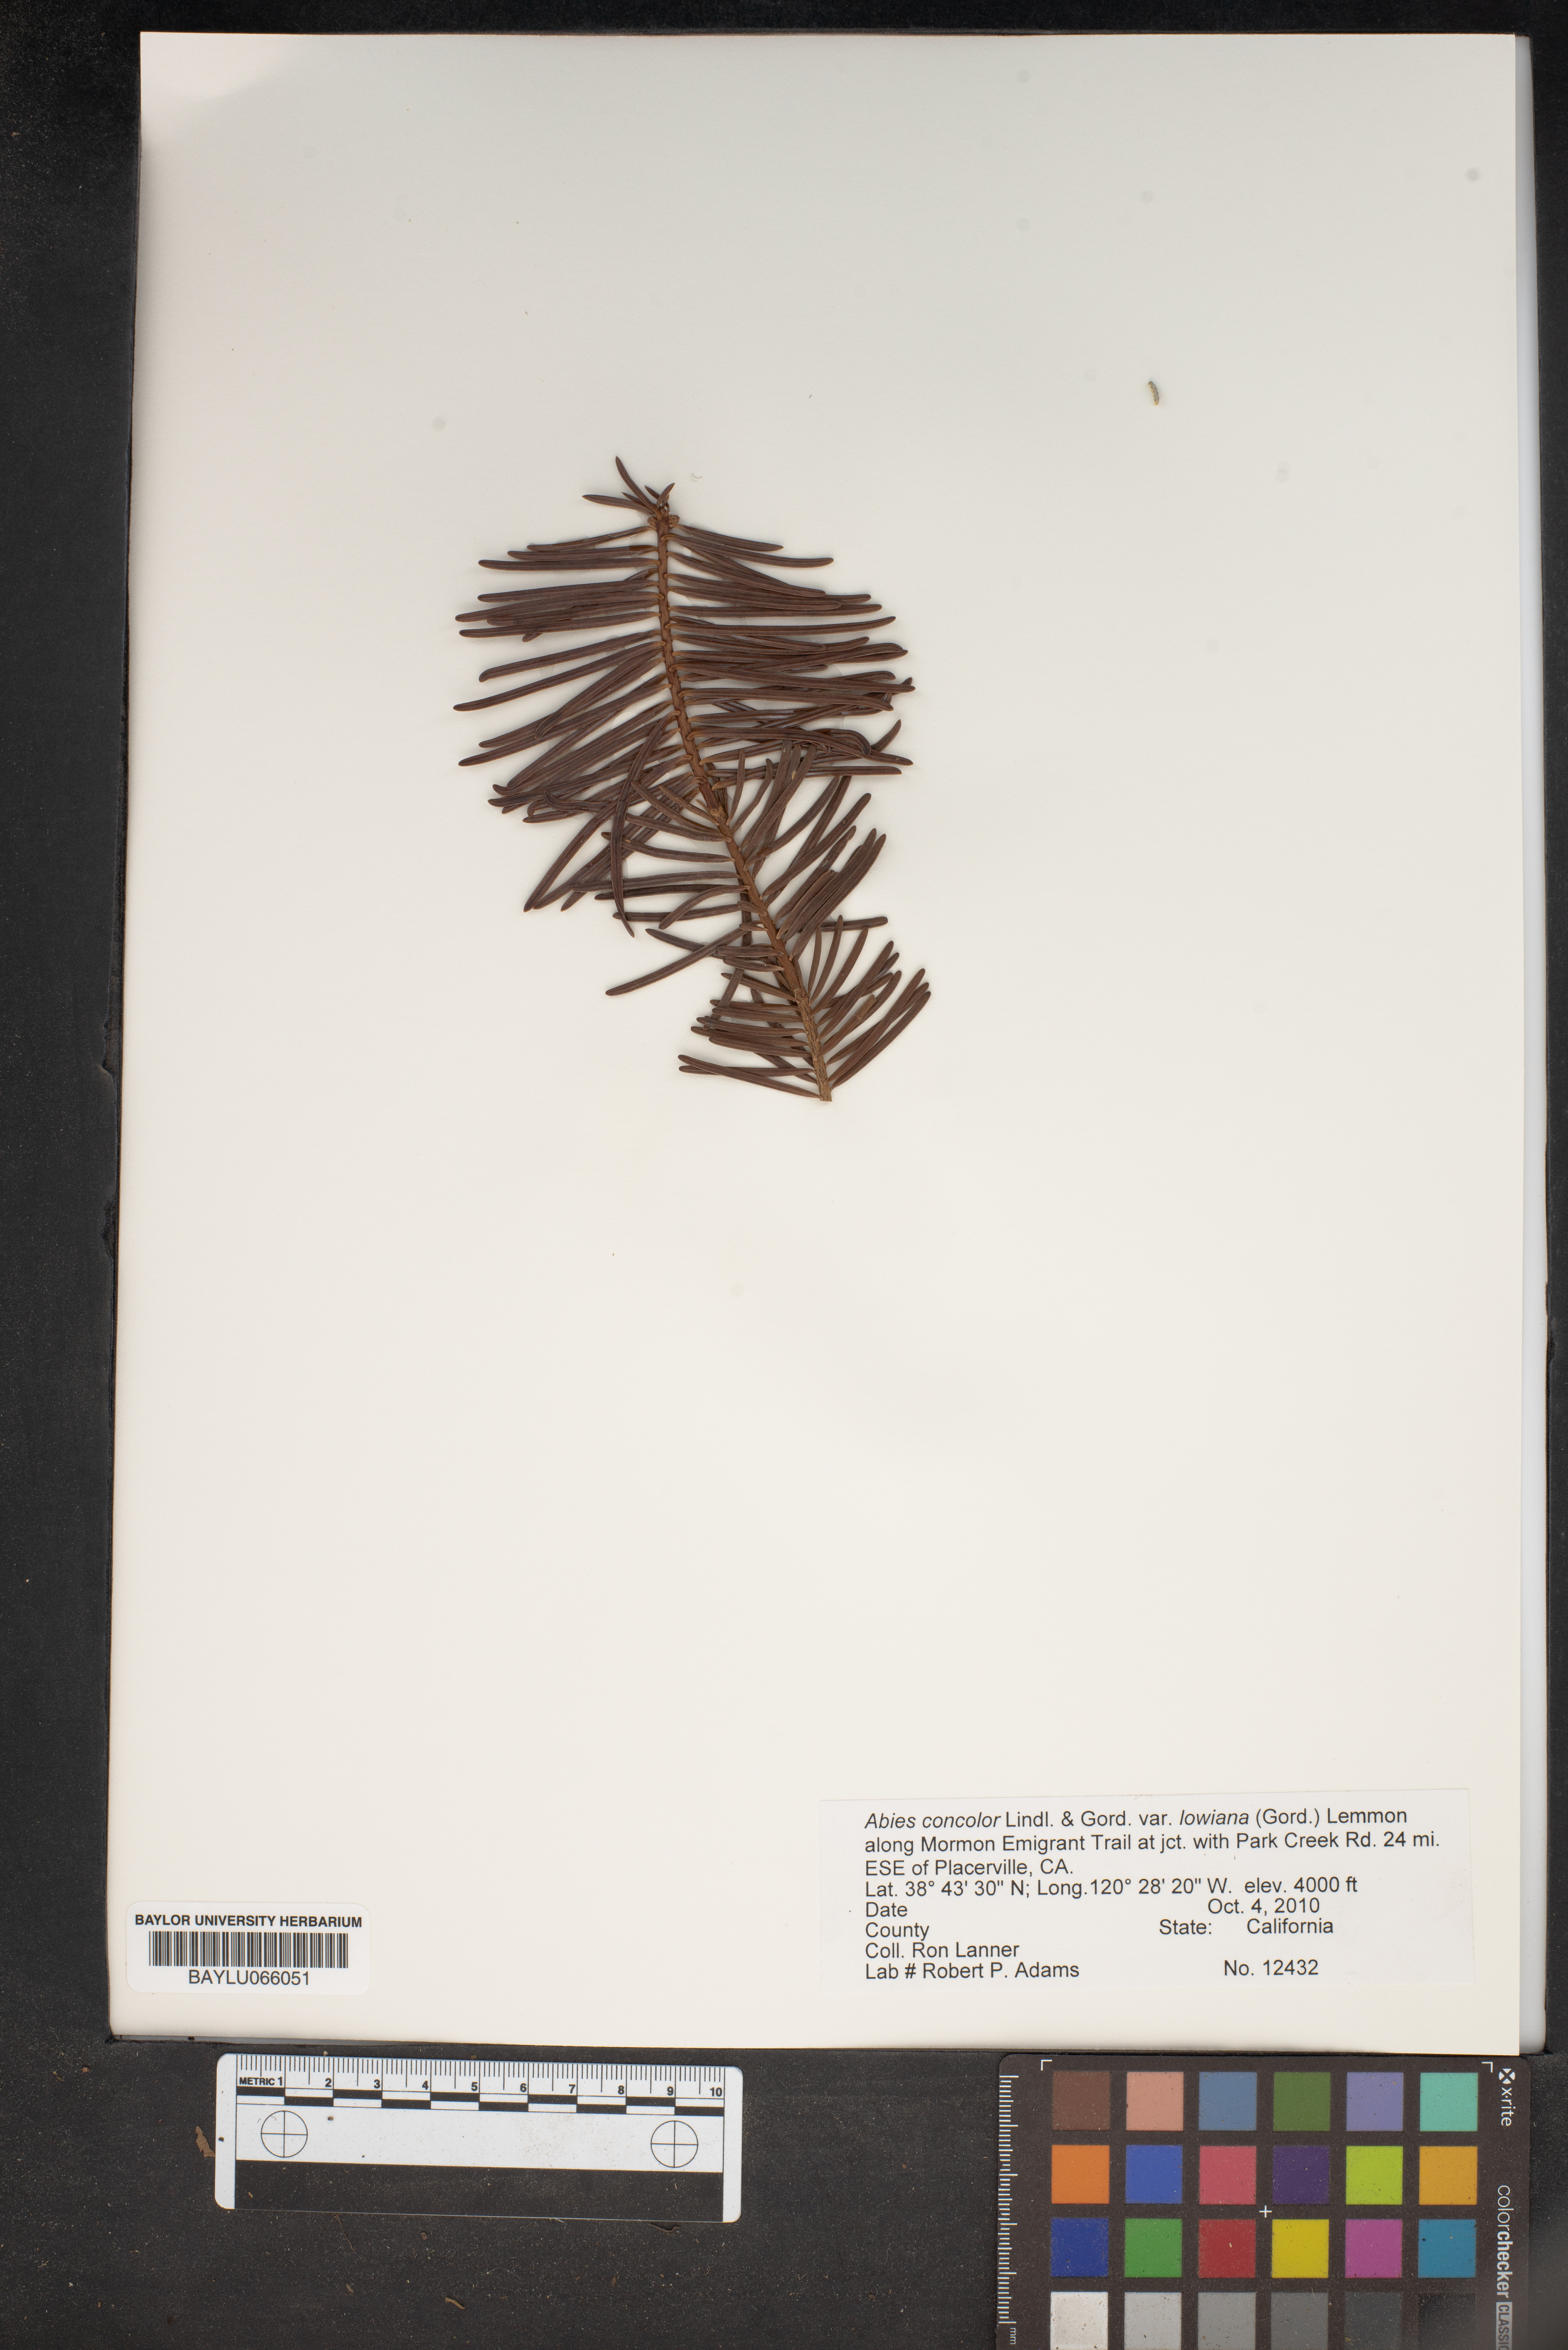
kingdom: Plantae
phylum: Tracheophyta
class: Pinopsida
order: Pinales
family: Pinaceae
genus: Abies
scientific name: Abies concolor
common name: Colorado fir
